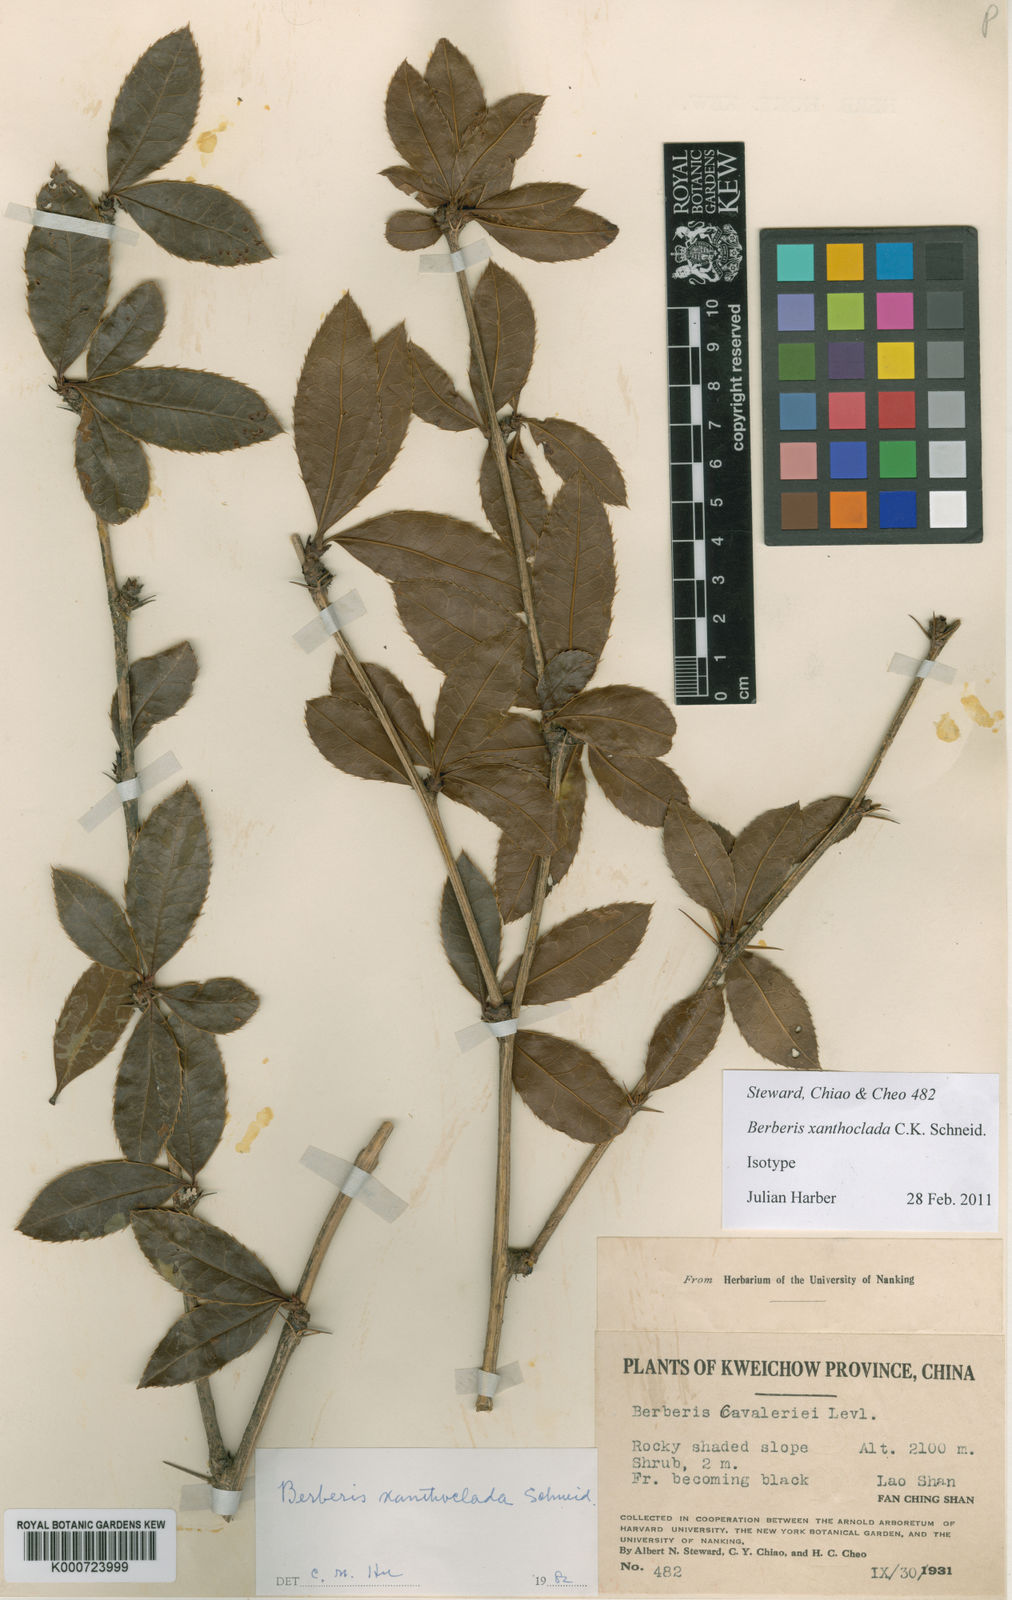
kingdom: Plantae
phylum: Tracheophyta
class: Magnoliopsida
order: Ranunculales
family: Berberidaceae
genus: Berberis
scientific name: Berberis xanthoclada
